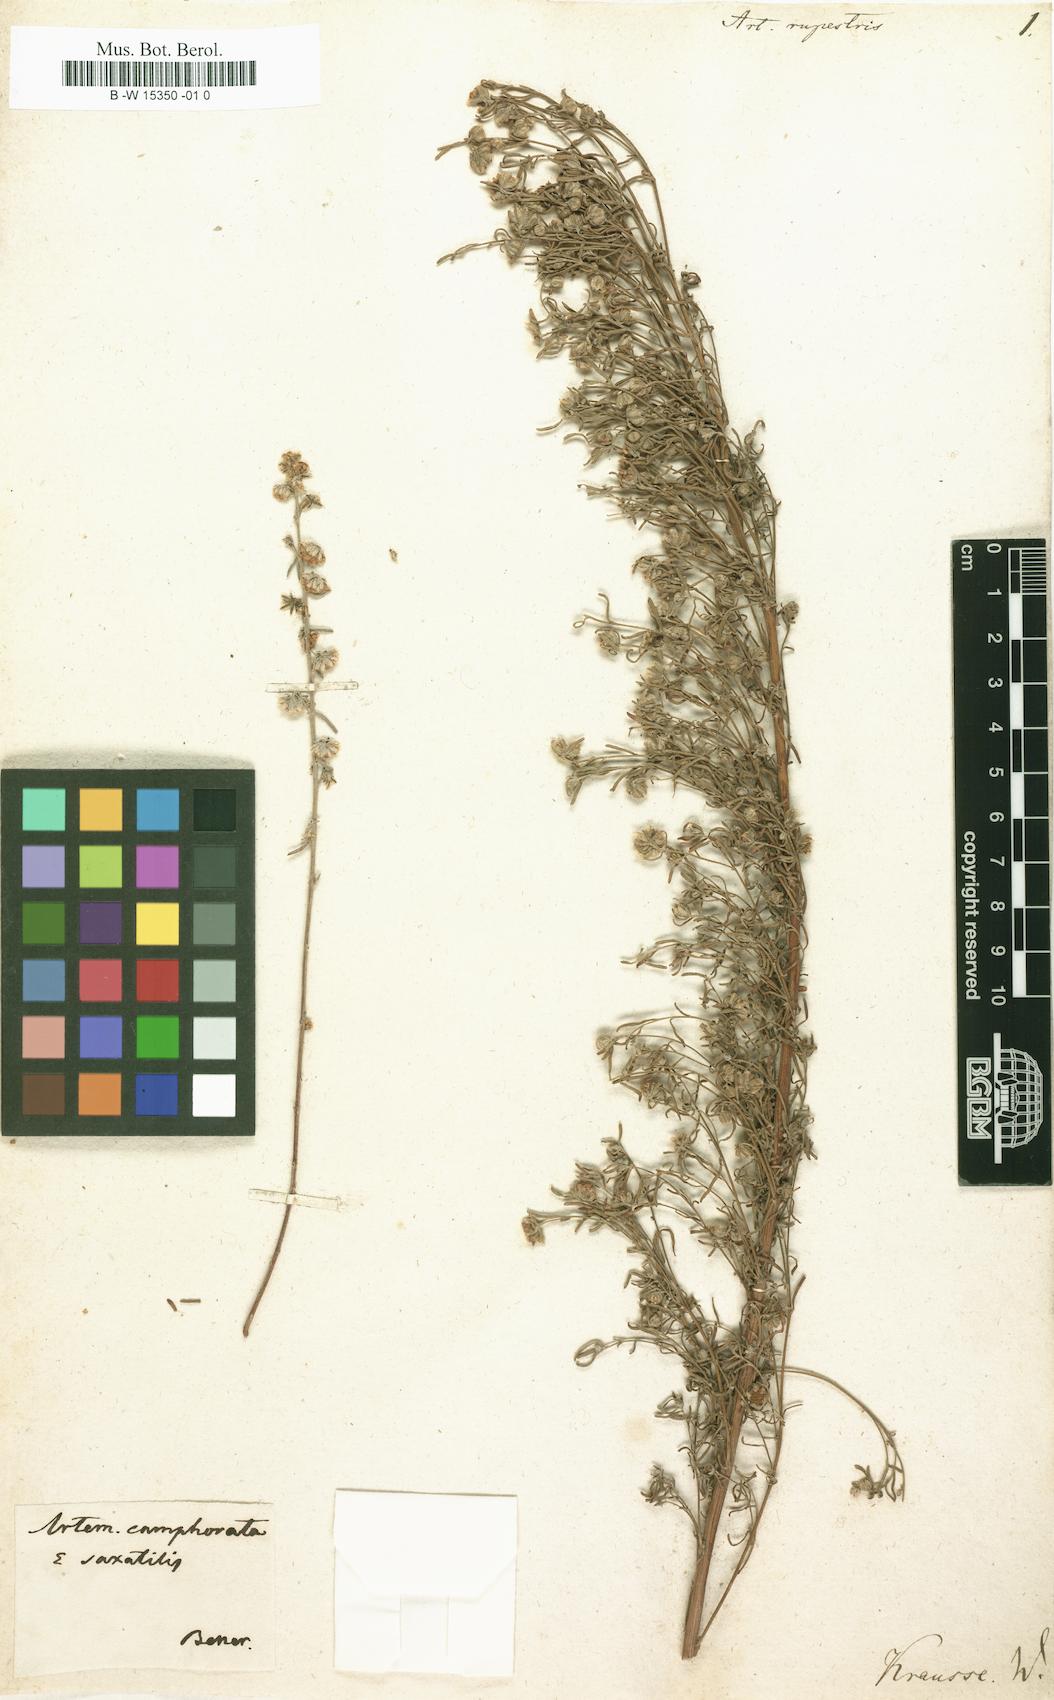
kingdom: Plantae
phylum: Tracheophyta
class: Magnoliopsida
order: Asterales
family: Asteraceae
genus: Artemisia
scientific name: Artemisia rupestris
